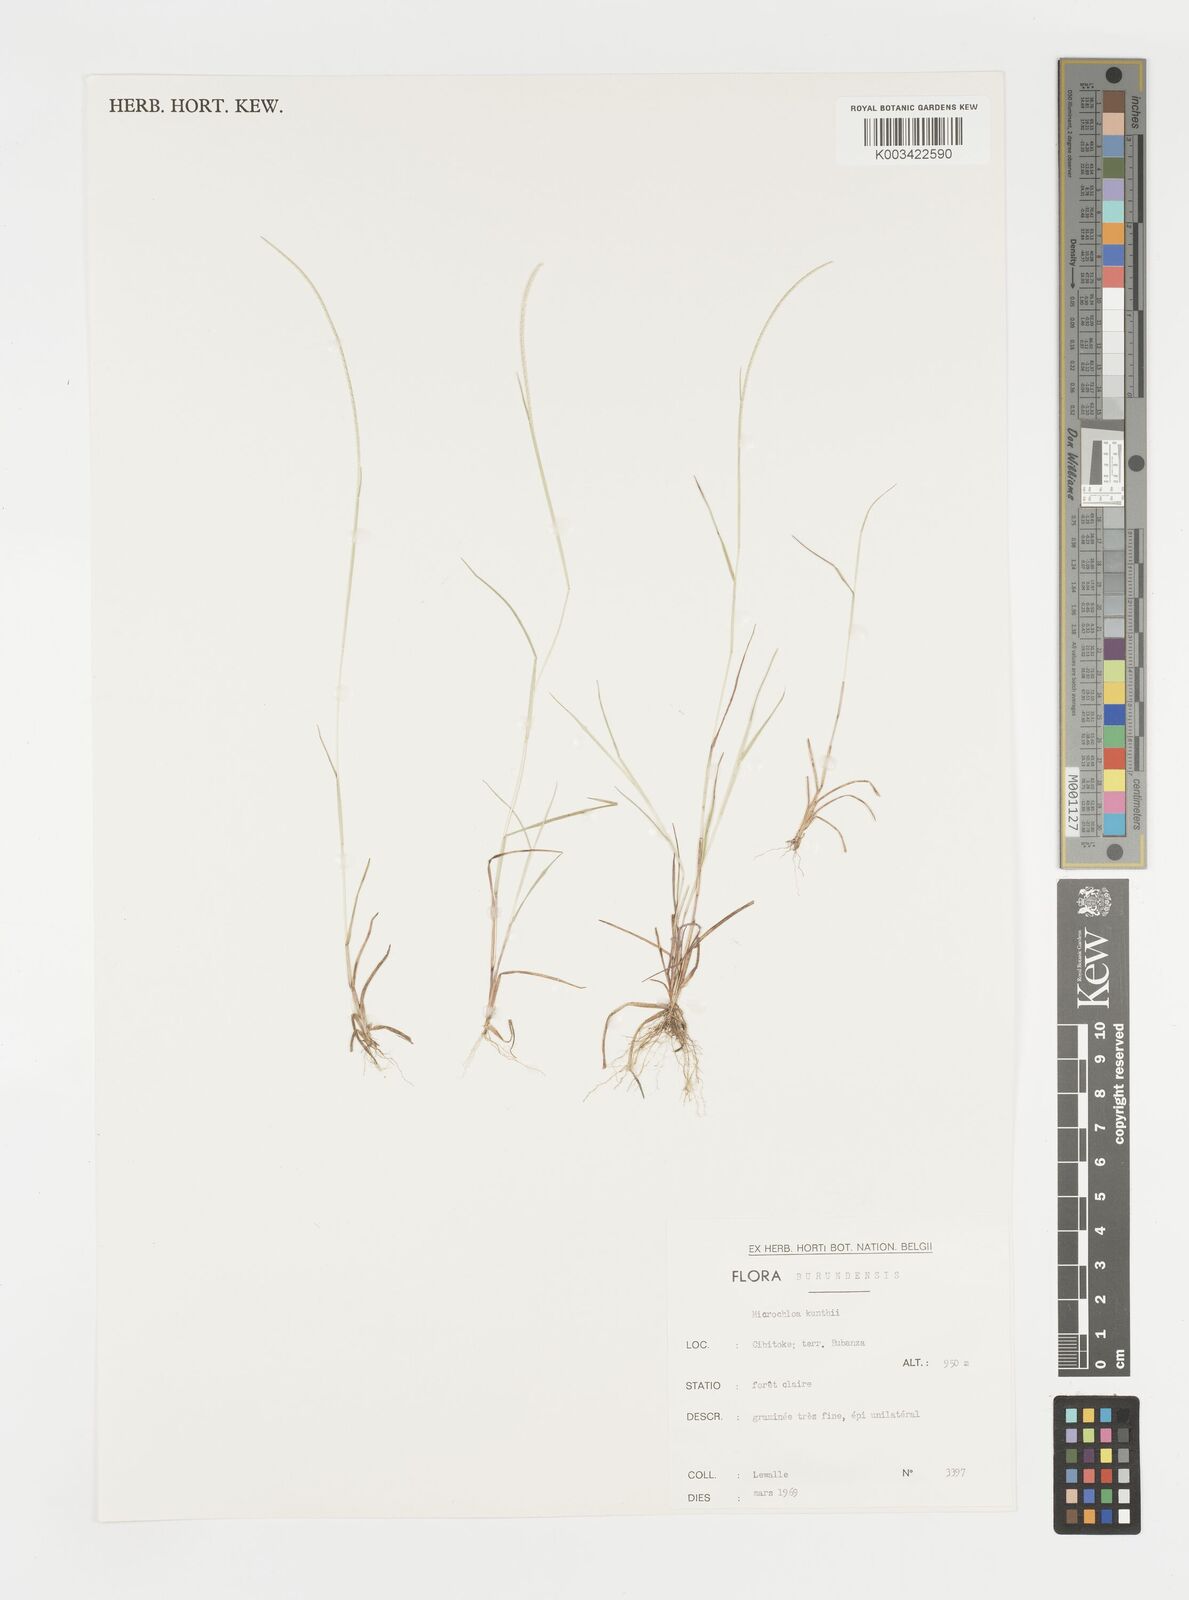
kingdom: Plantae
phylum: Tracheophyta
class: Liliopsida
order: Poales
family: Poaceae
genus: Microchloa
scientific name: Microchloa indica
